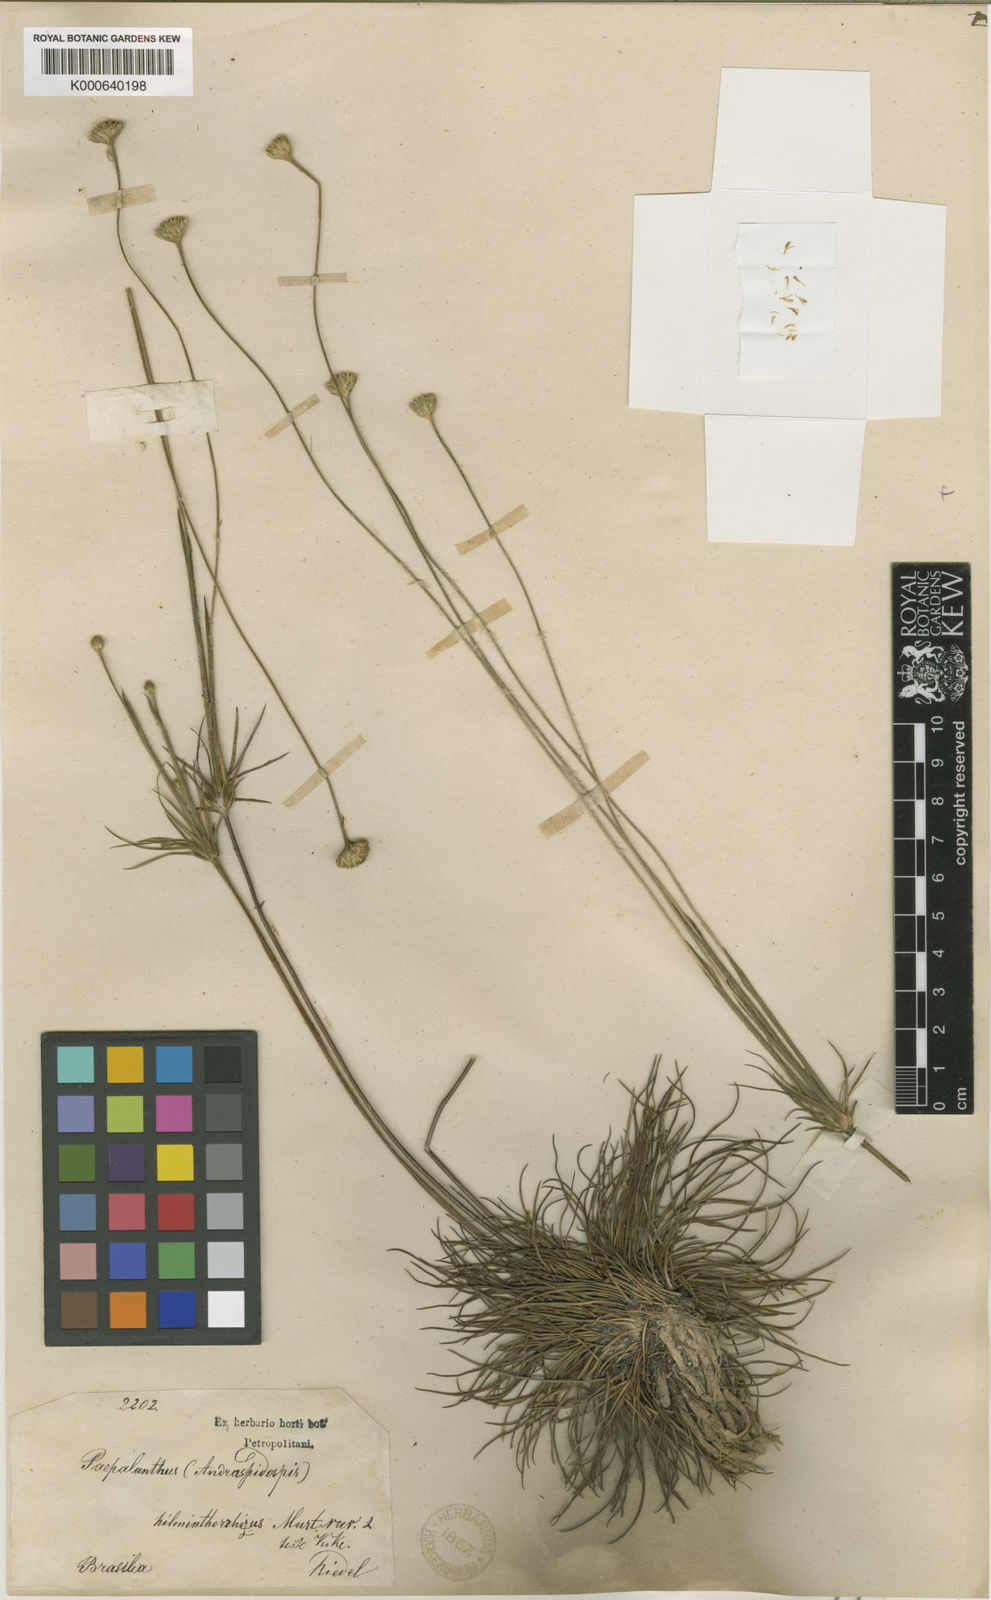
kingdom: Plantae
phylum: Tracheophyta
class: Liliopsida
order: Poales
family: Eriocaulaceae
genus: Syngonanthus
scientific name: Syngonanthus
